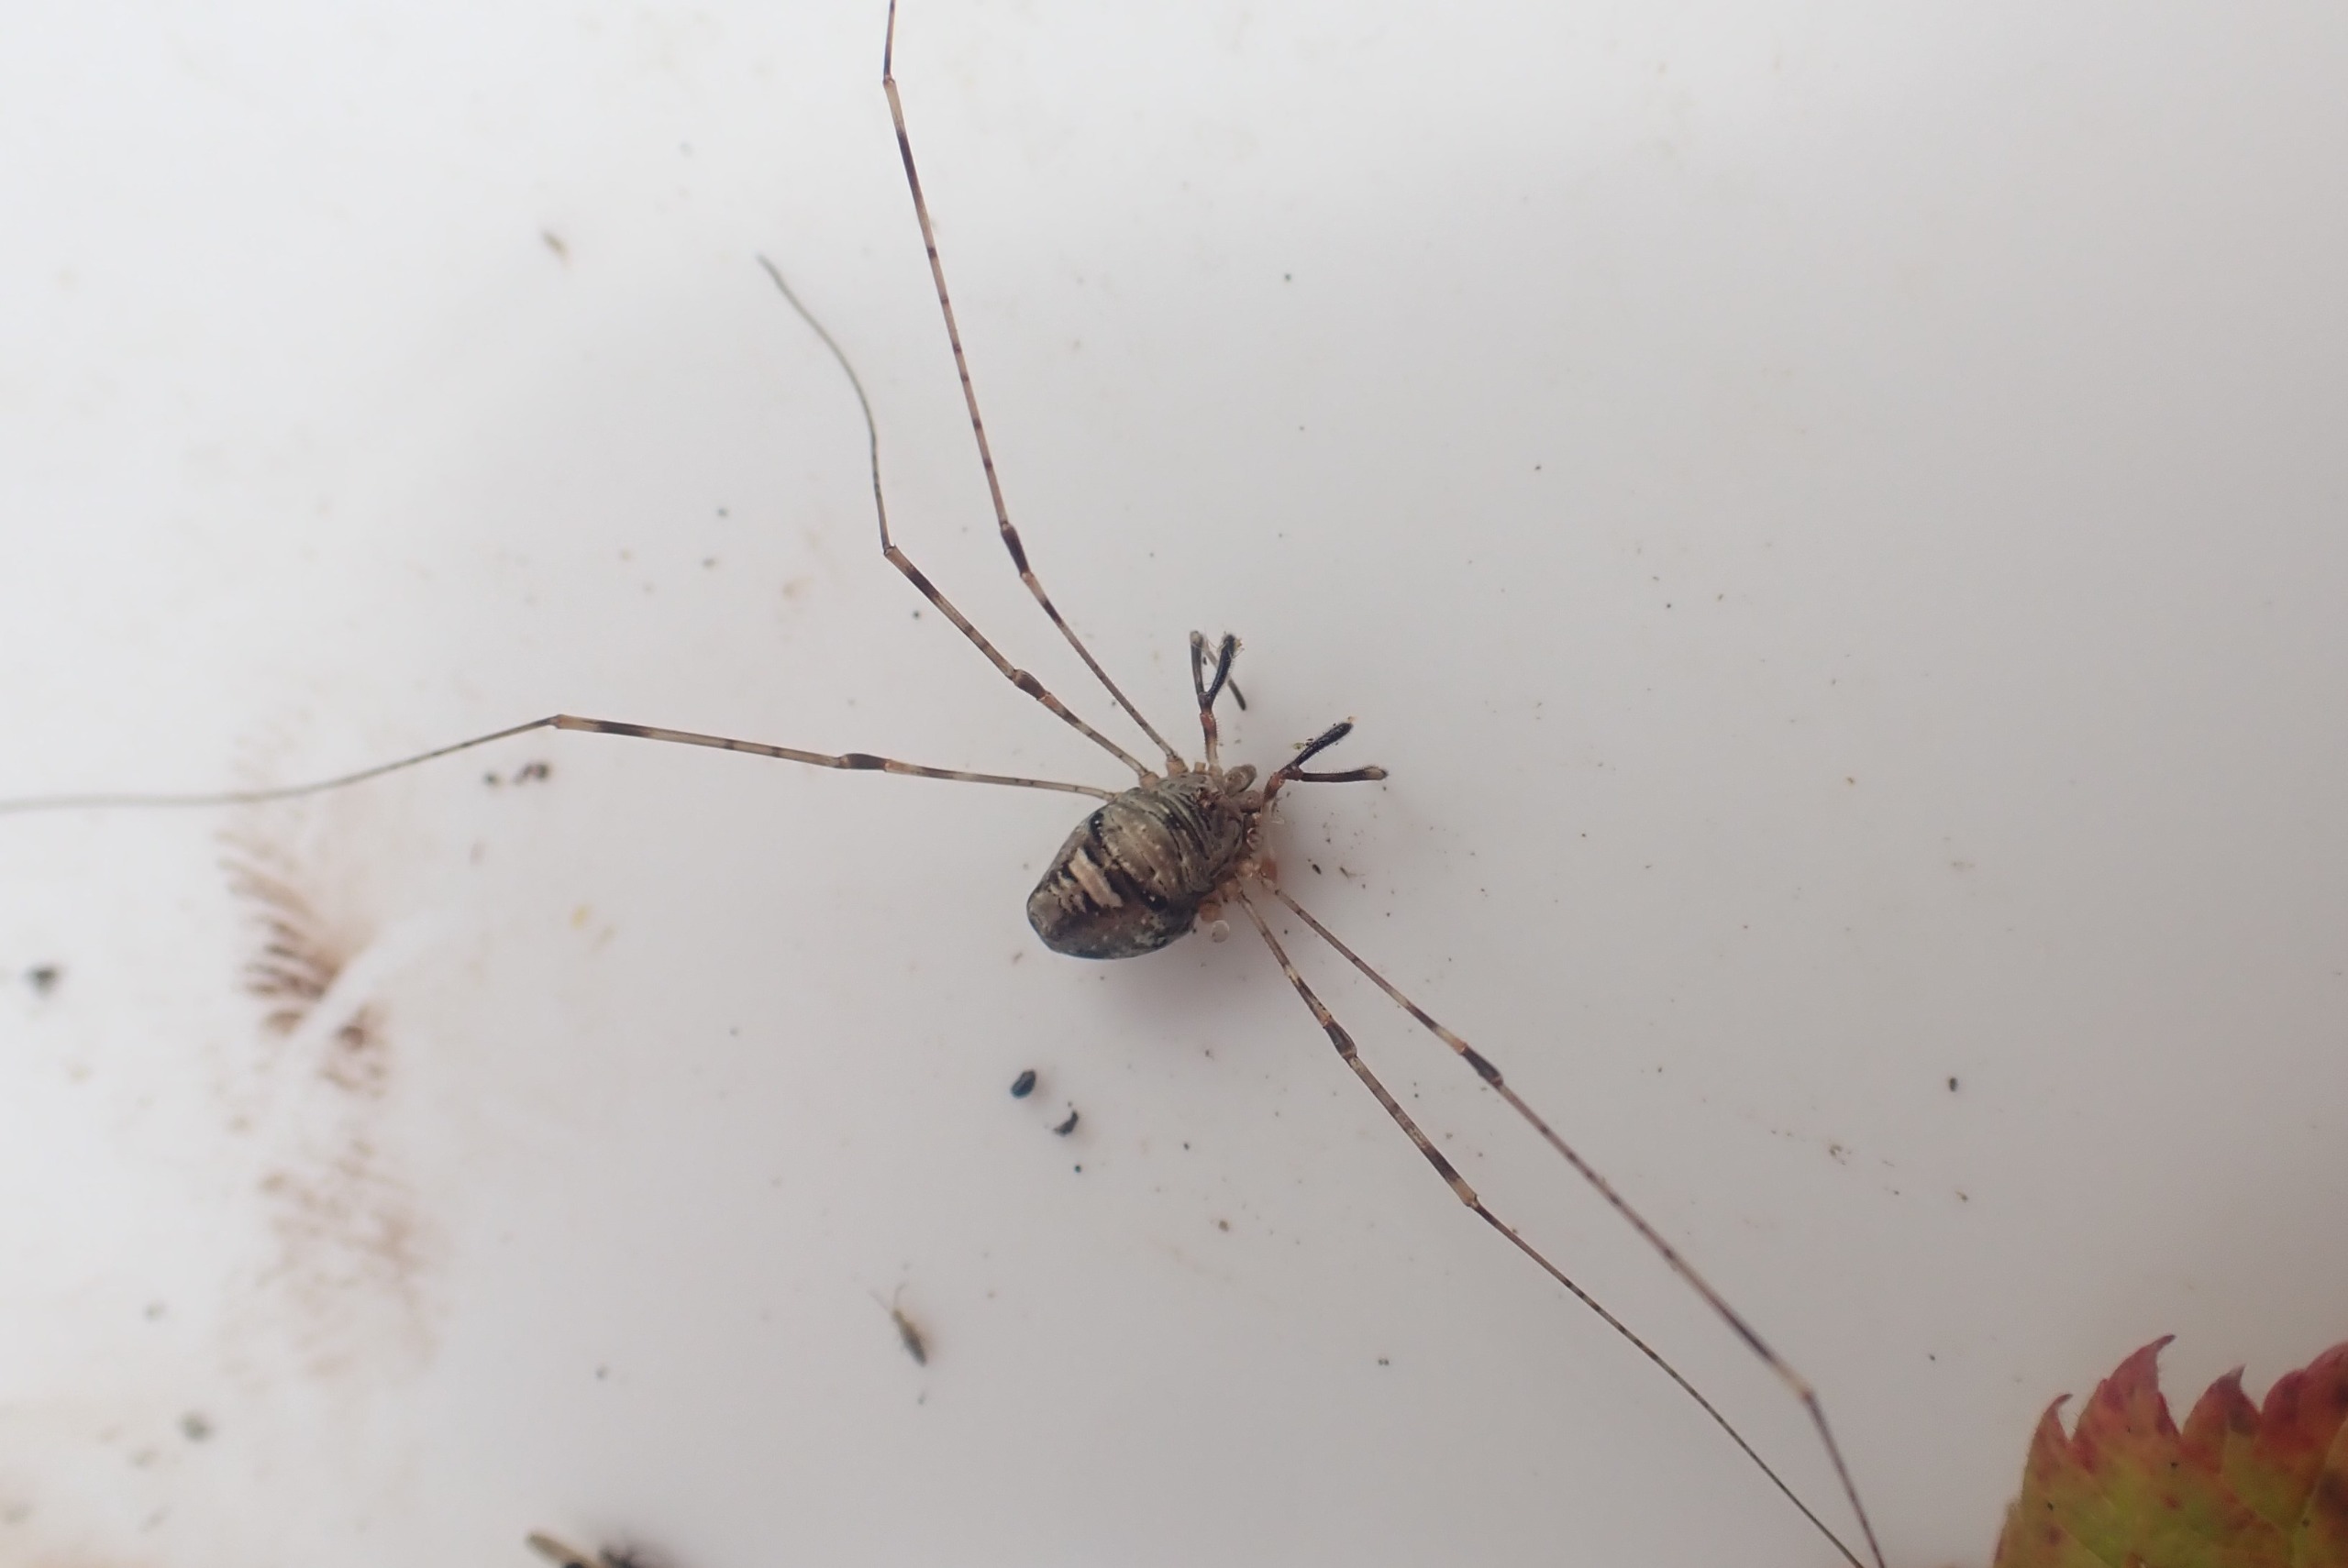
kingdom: Animalia
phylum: Arthropoda
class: Arachnida
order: Opiliones
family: Phalangiidae
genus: Dicranopalpus
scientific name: Dicranopalpus ramosus
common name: Gaffelmejer
